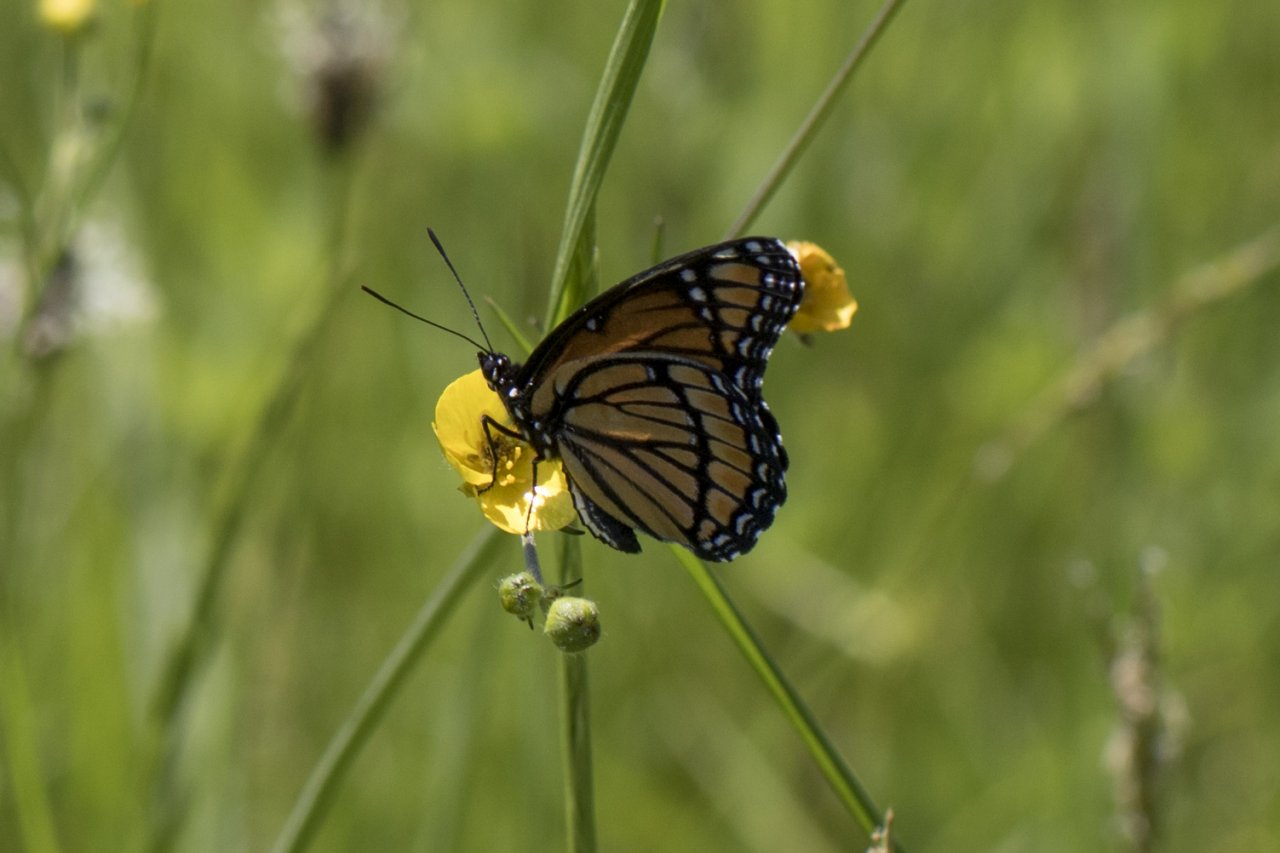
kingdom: Animalia
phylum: Arthropoda
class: Insecta
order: Lepidoptera
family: Nymphalidae
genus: Limenitis
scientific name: Limenitis archippus
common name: Viceroy
